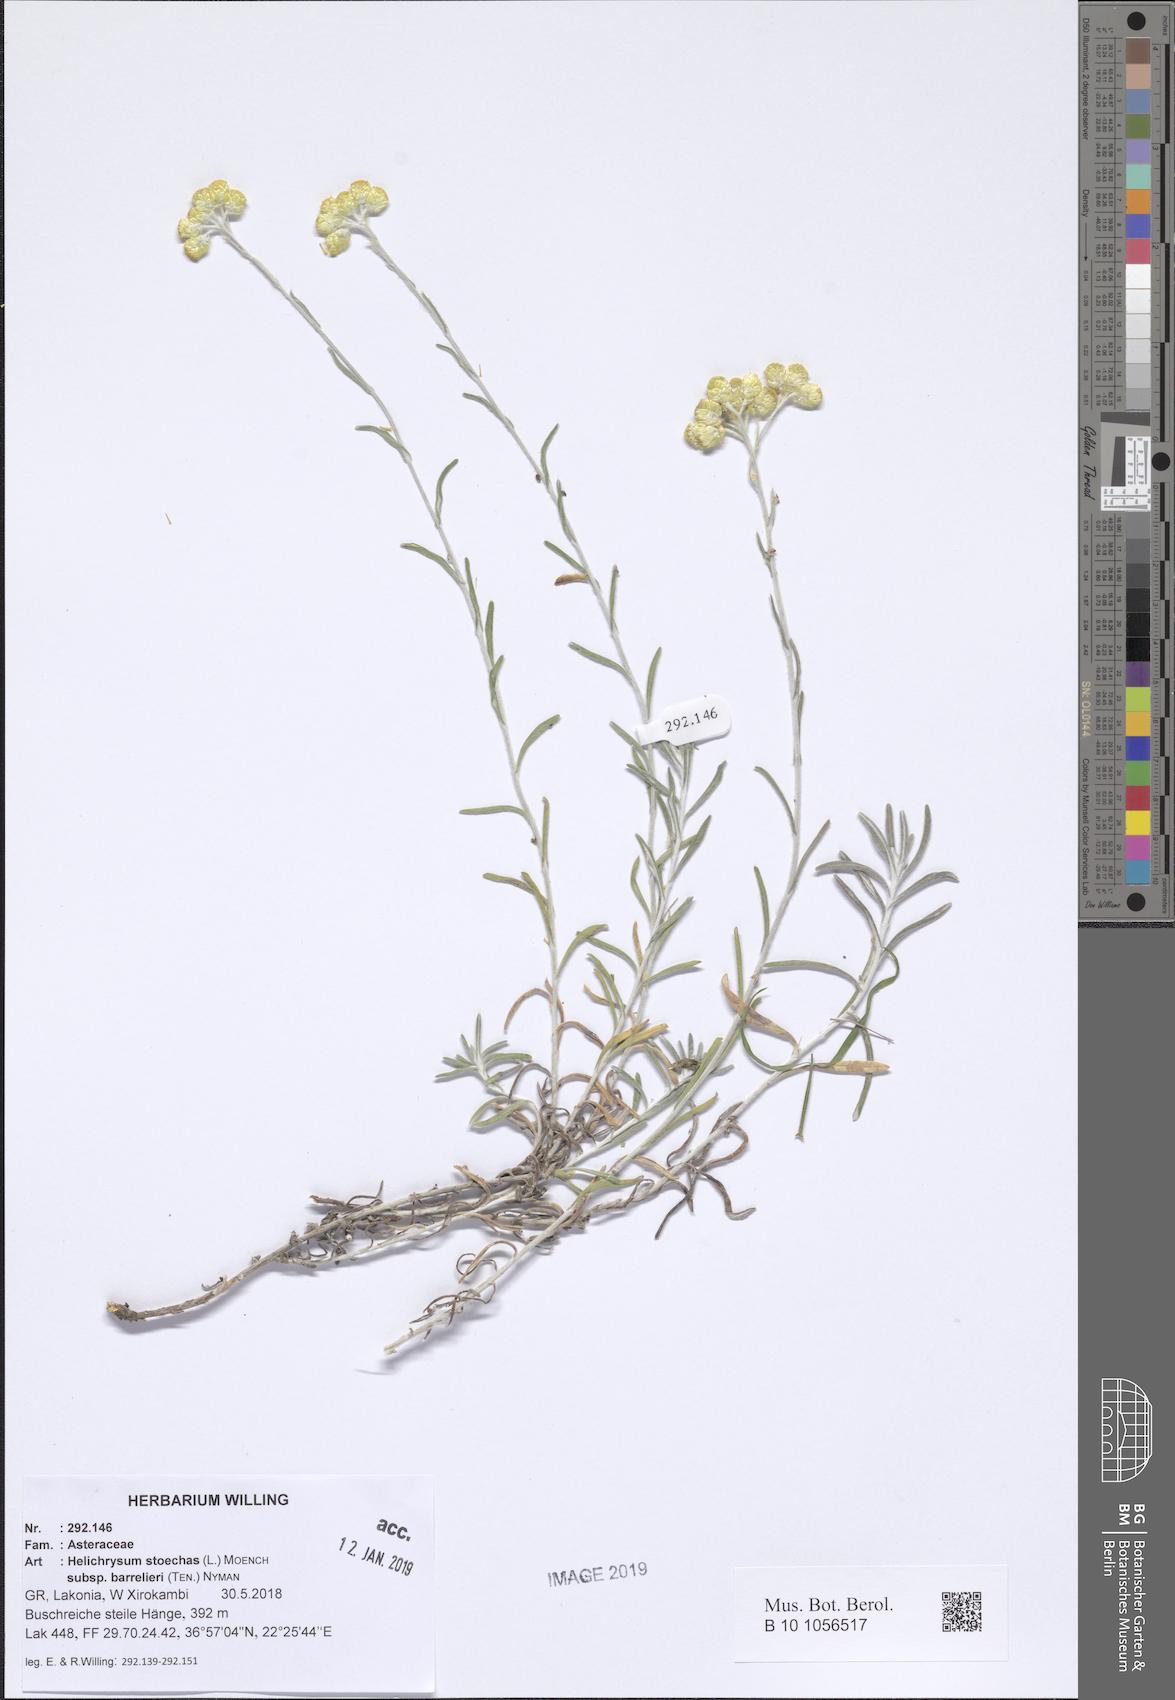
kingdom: Plantae
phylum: Tracheophyta
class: Magnoliopsida
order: Asterales
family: Asteraceae
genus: Helichrysum
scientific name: Helichrysum stoechas
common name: Goldilocks
